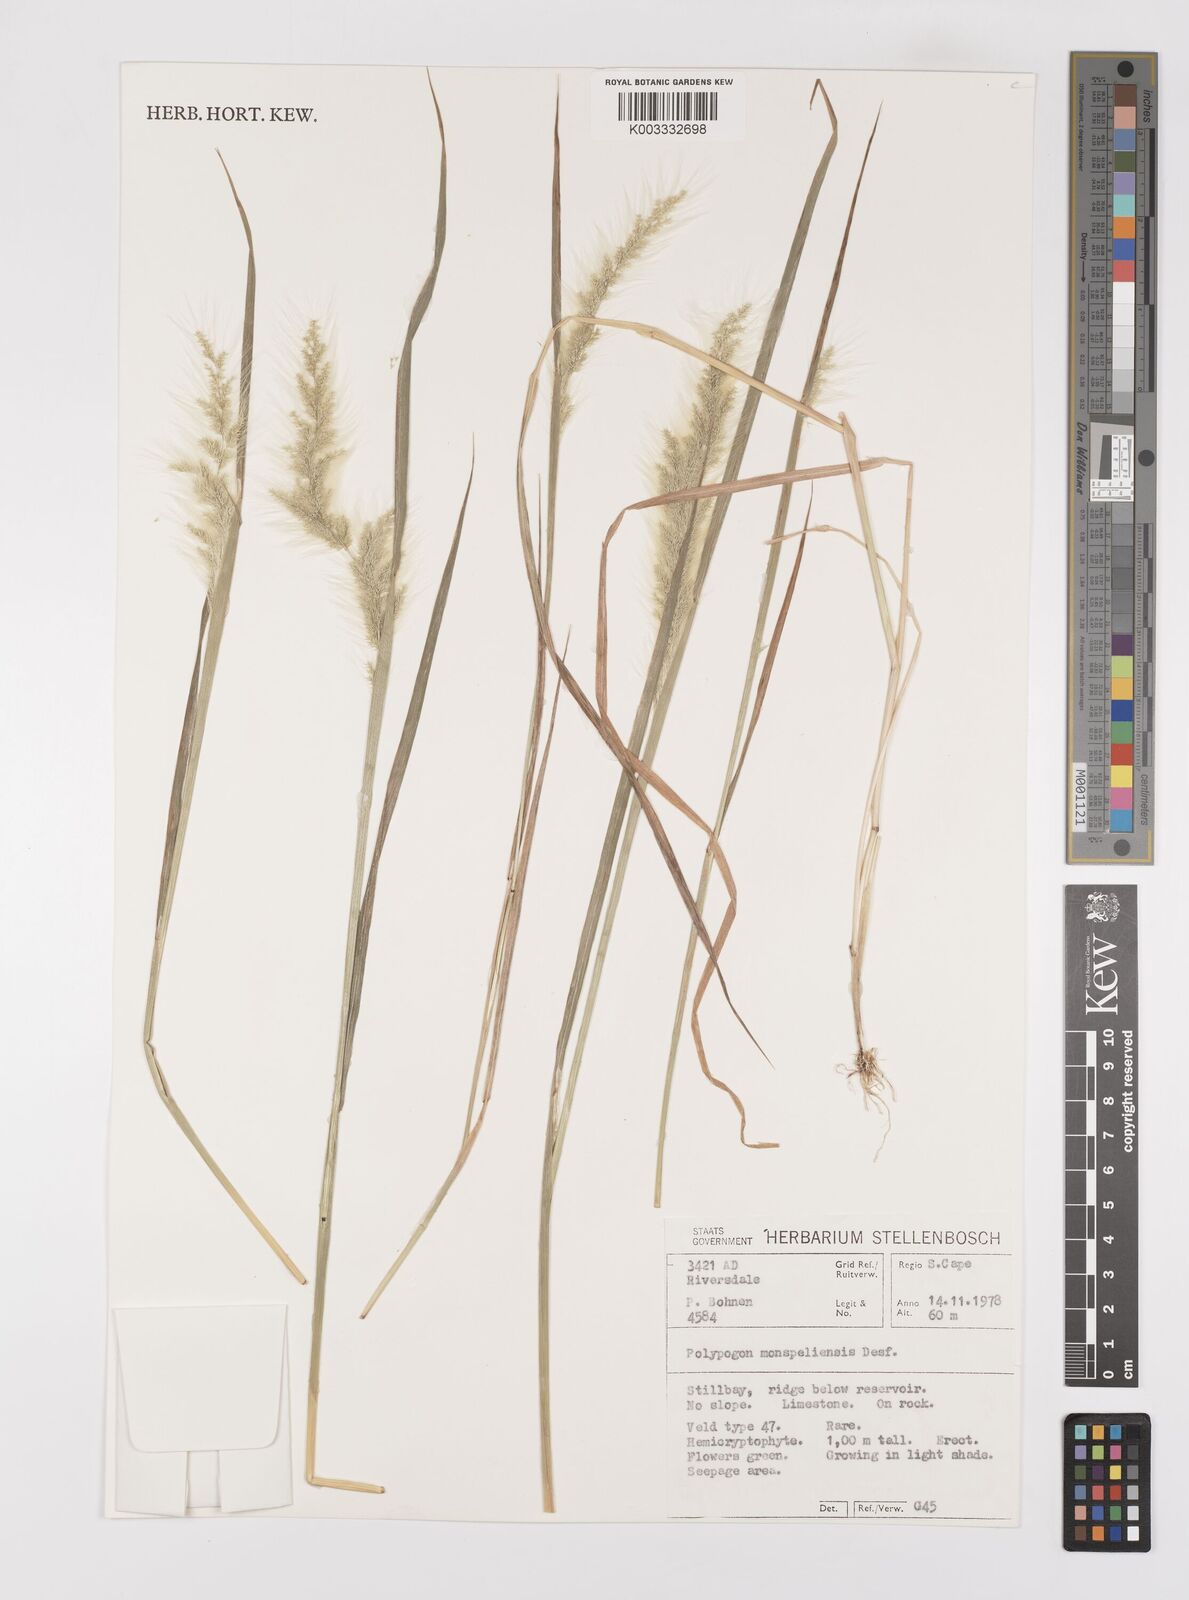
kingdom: Plantae
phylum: Tracheophyta
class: Liliopsida
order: Poales
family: Poaceae
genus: Polypogon
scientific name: Polypogon monspeliensis
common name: Annual rabbitsfoot grass
